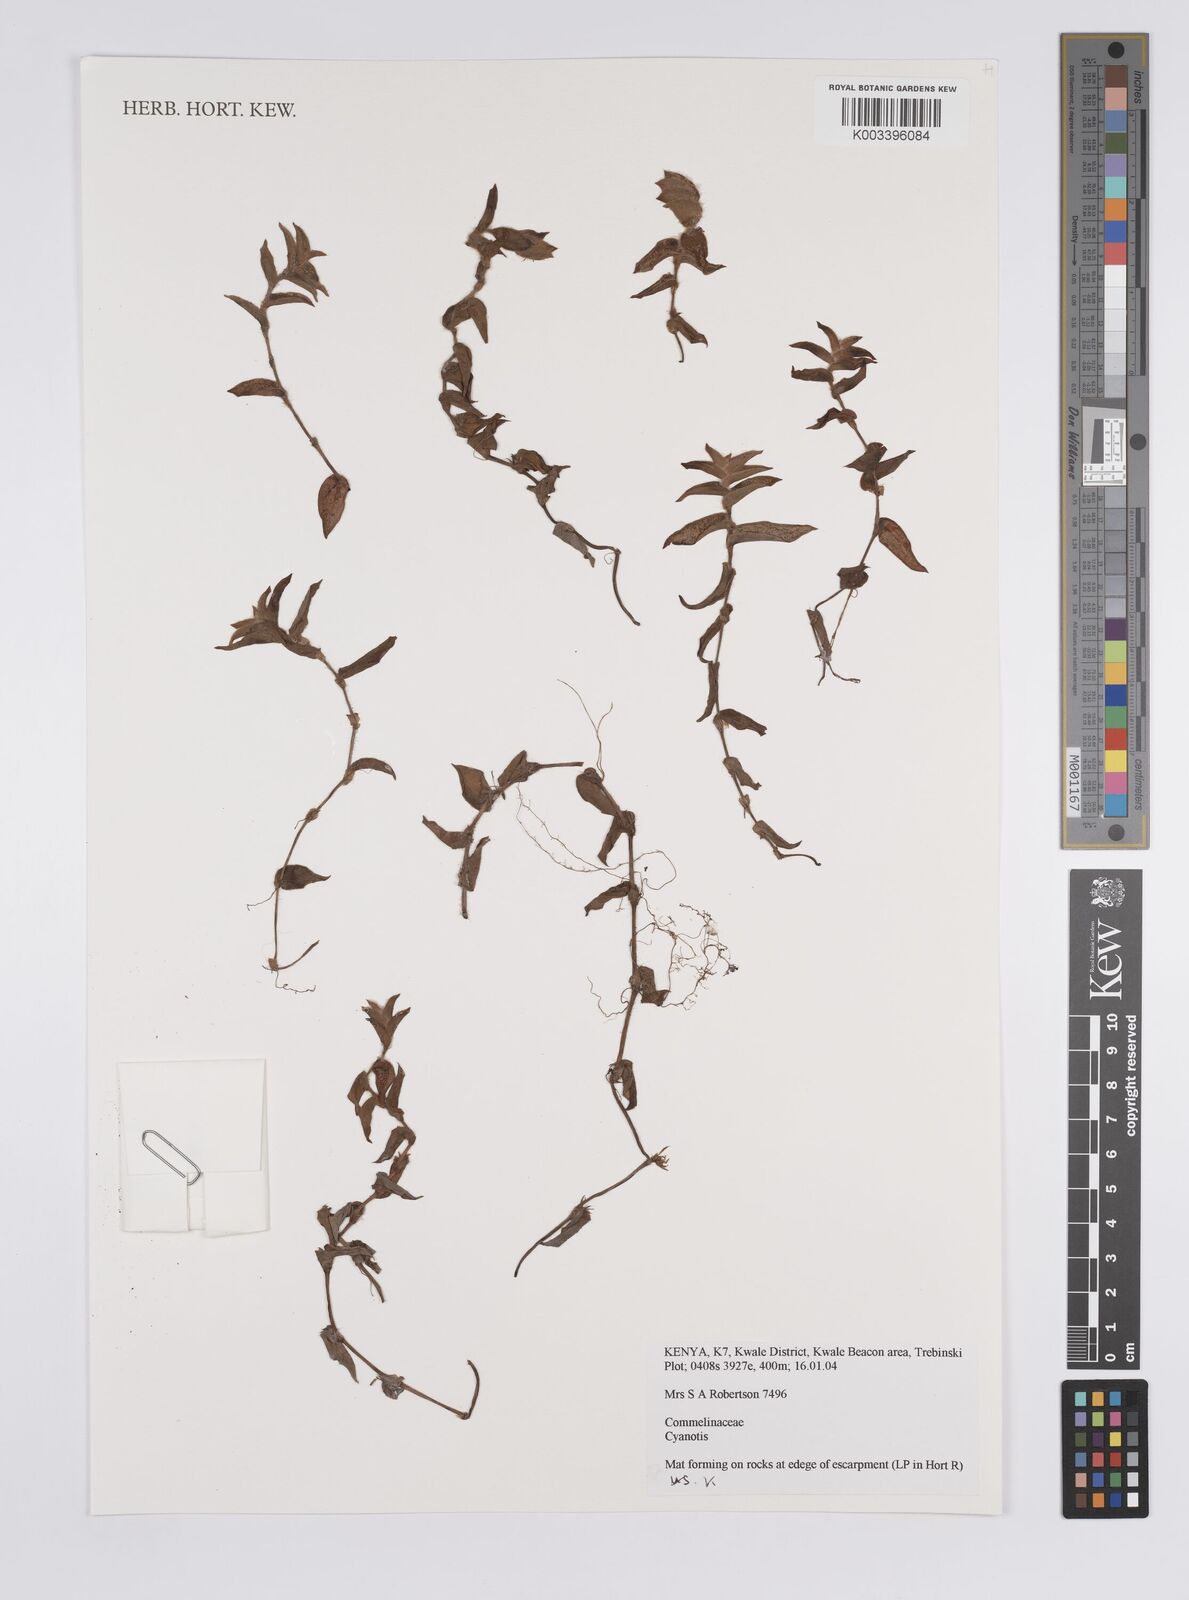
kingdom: Plantae
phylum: Tracheophyta
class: Liliopsida
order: Commelinales
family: Commelinaceae
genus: Cyanotis
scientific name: Cyanotis repens
